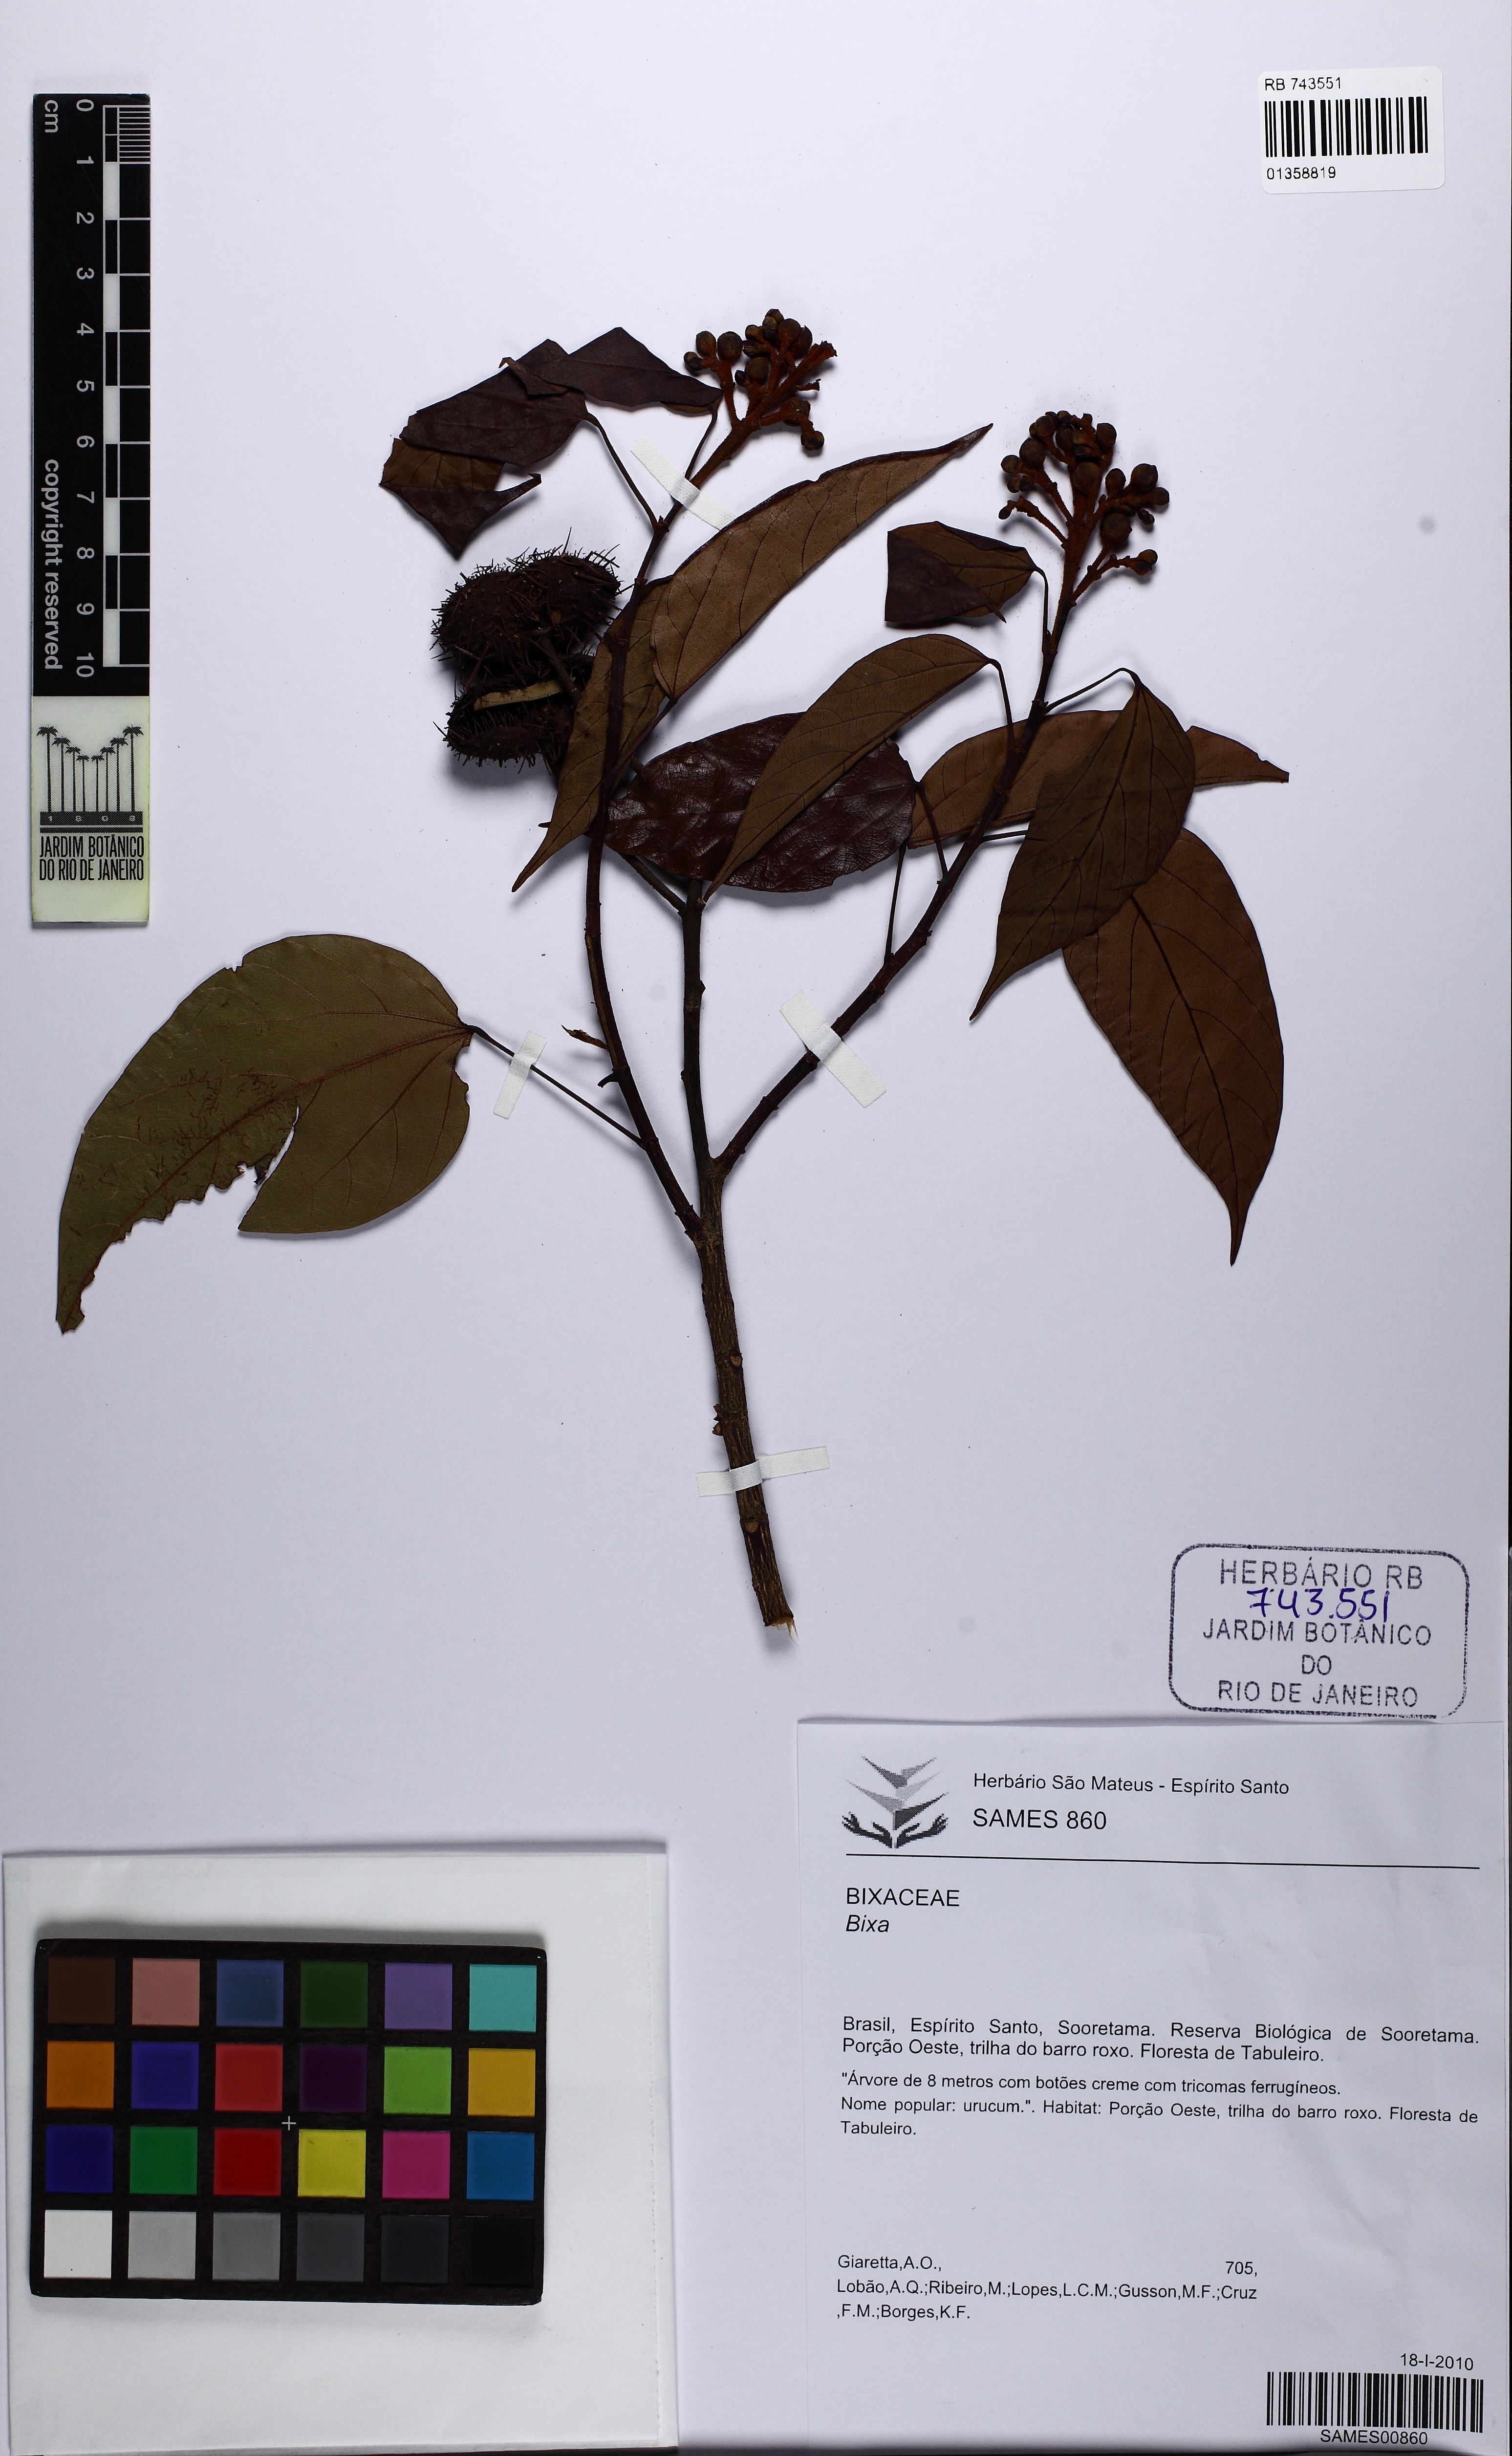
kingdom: Plantae
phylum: Tracheophyta
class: Magnoliopsida
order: Malvales
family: Bixaceae
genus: Bixa
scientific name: Bixa
